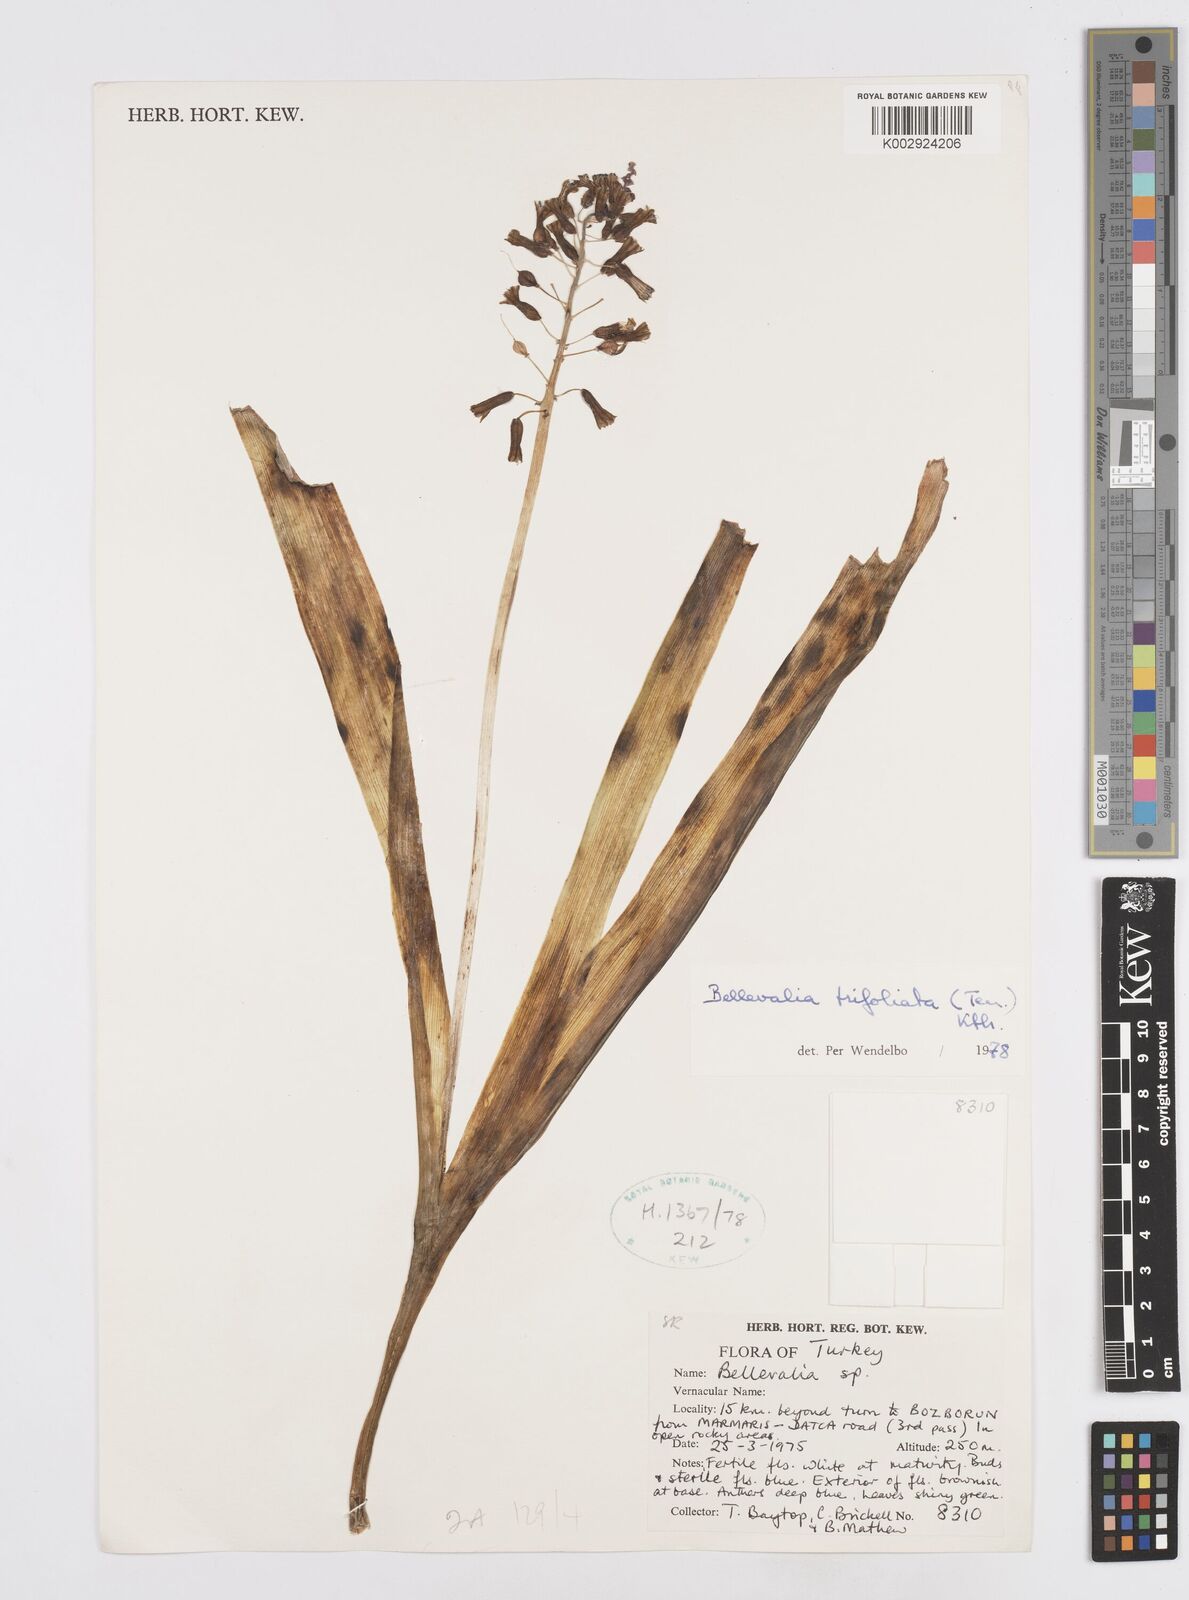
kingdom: Plantae
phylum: Tracheophyta
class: Liliopsida
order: Asparagales
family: Asparagaceae
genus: Bellevalia
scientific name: Bellevalia trifoliata
